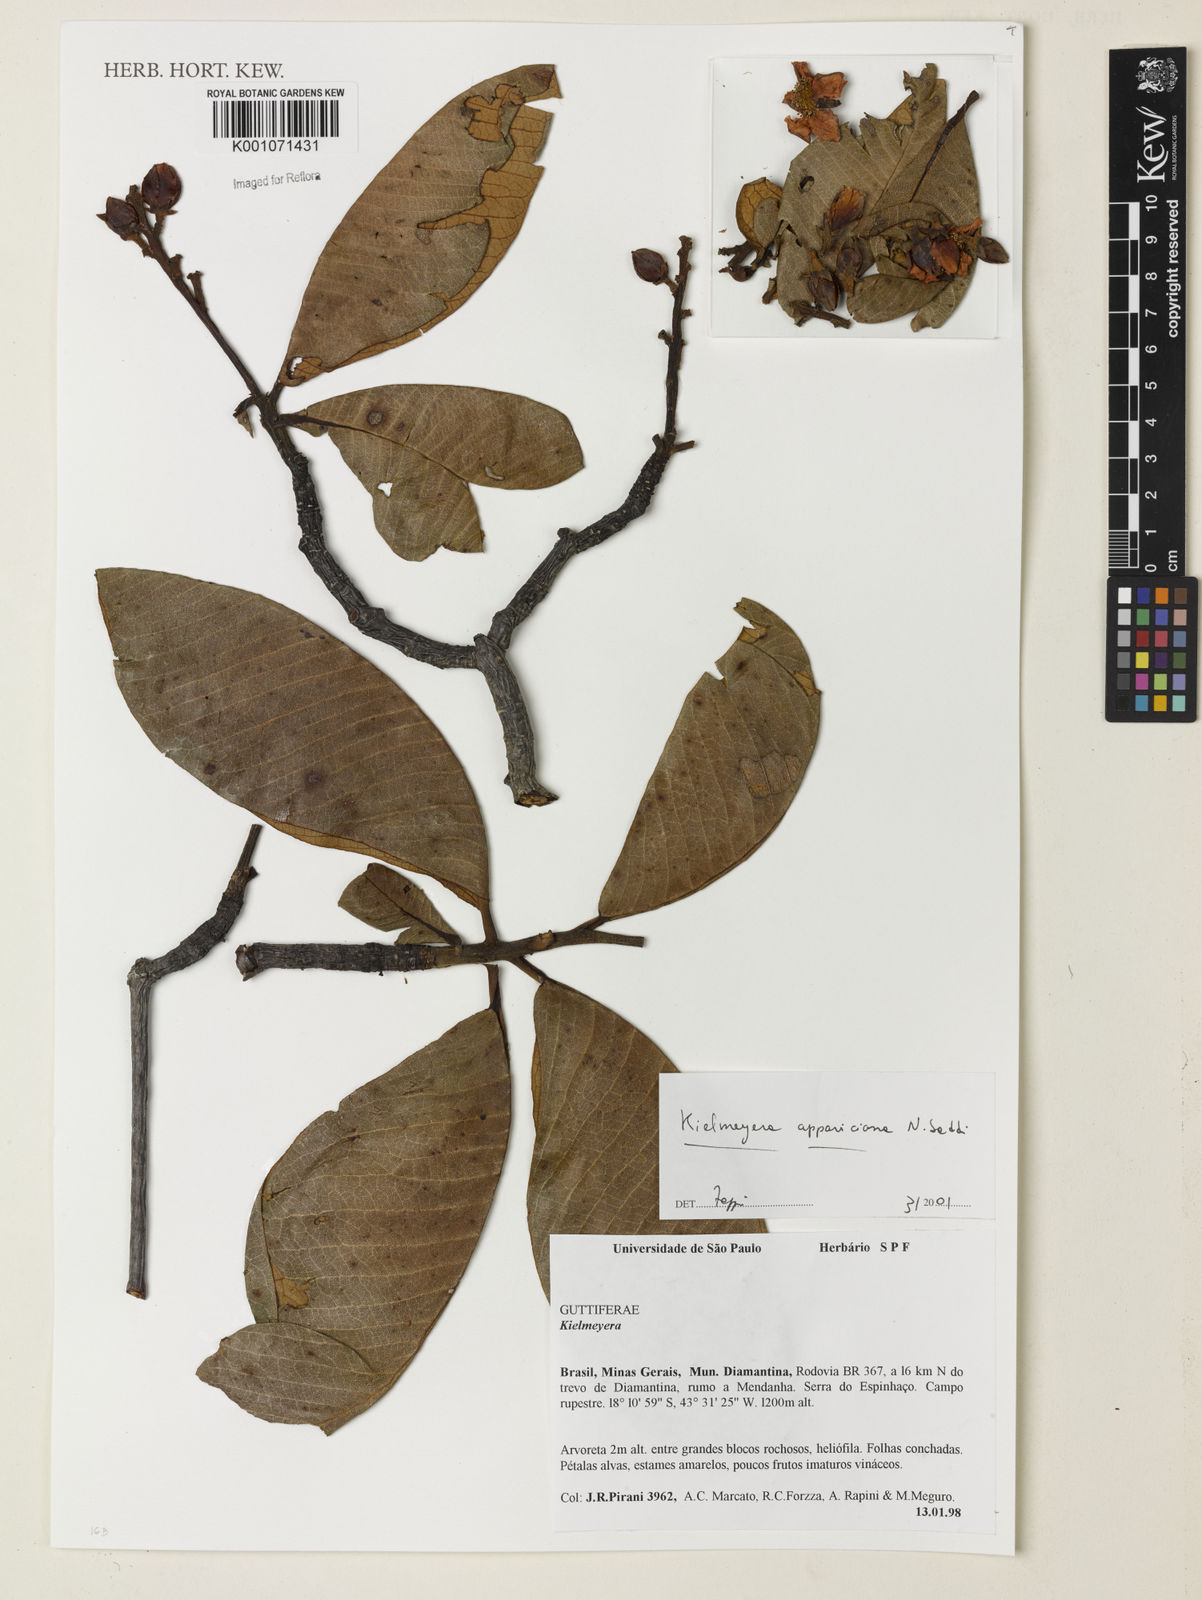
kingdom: Plantae
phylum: Tracheophyta
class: Magnoliopsida
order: Malpighiales
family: Calophyllaceae
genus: Kielmeyera
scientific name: Kielmeyera appariciana
